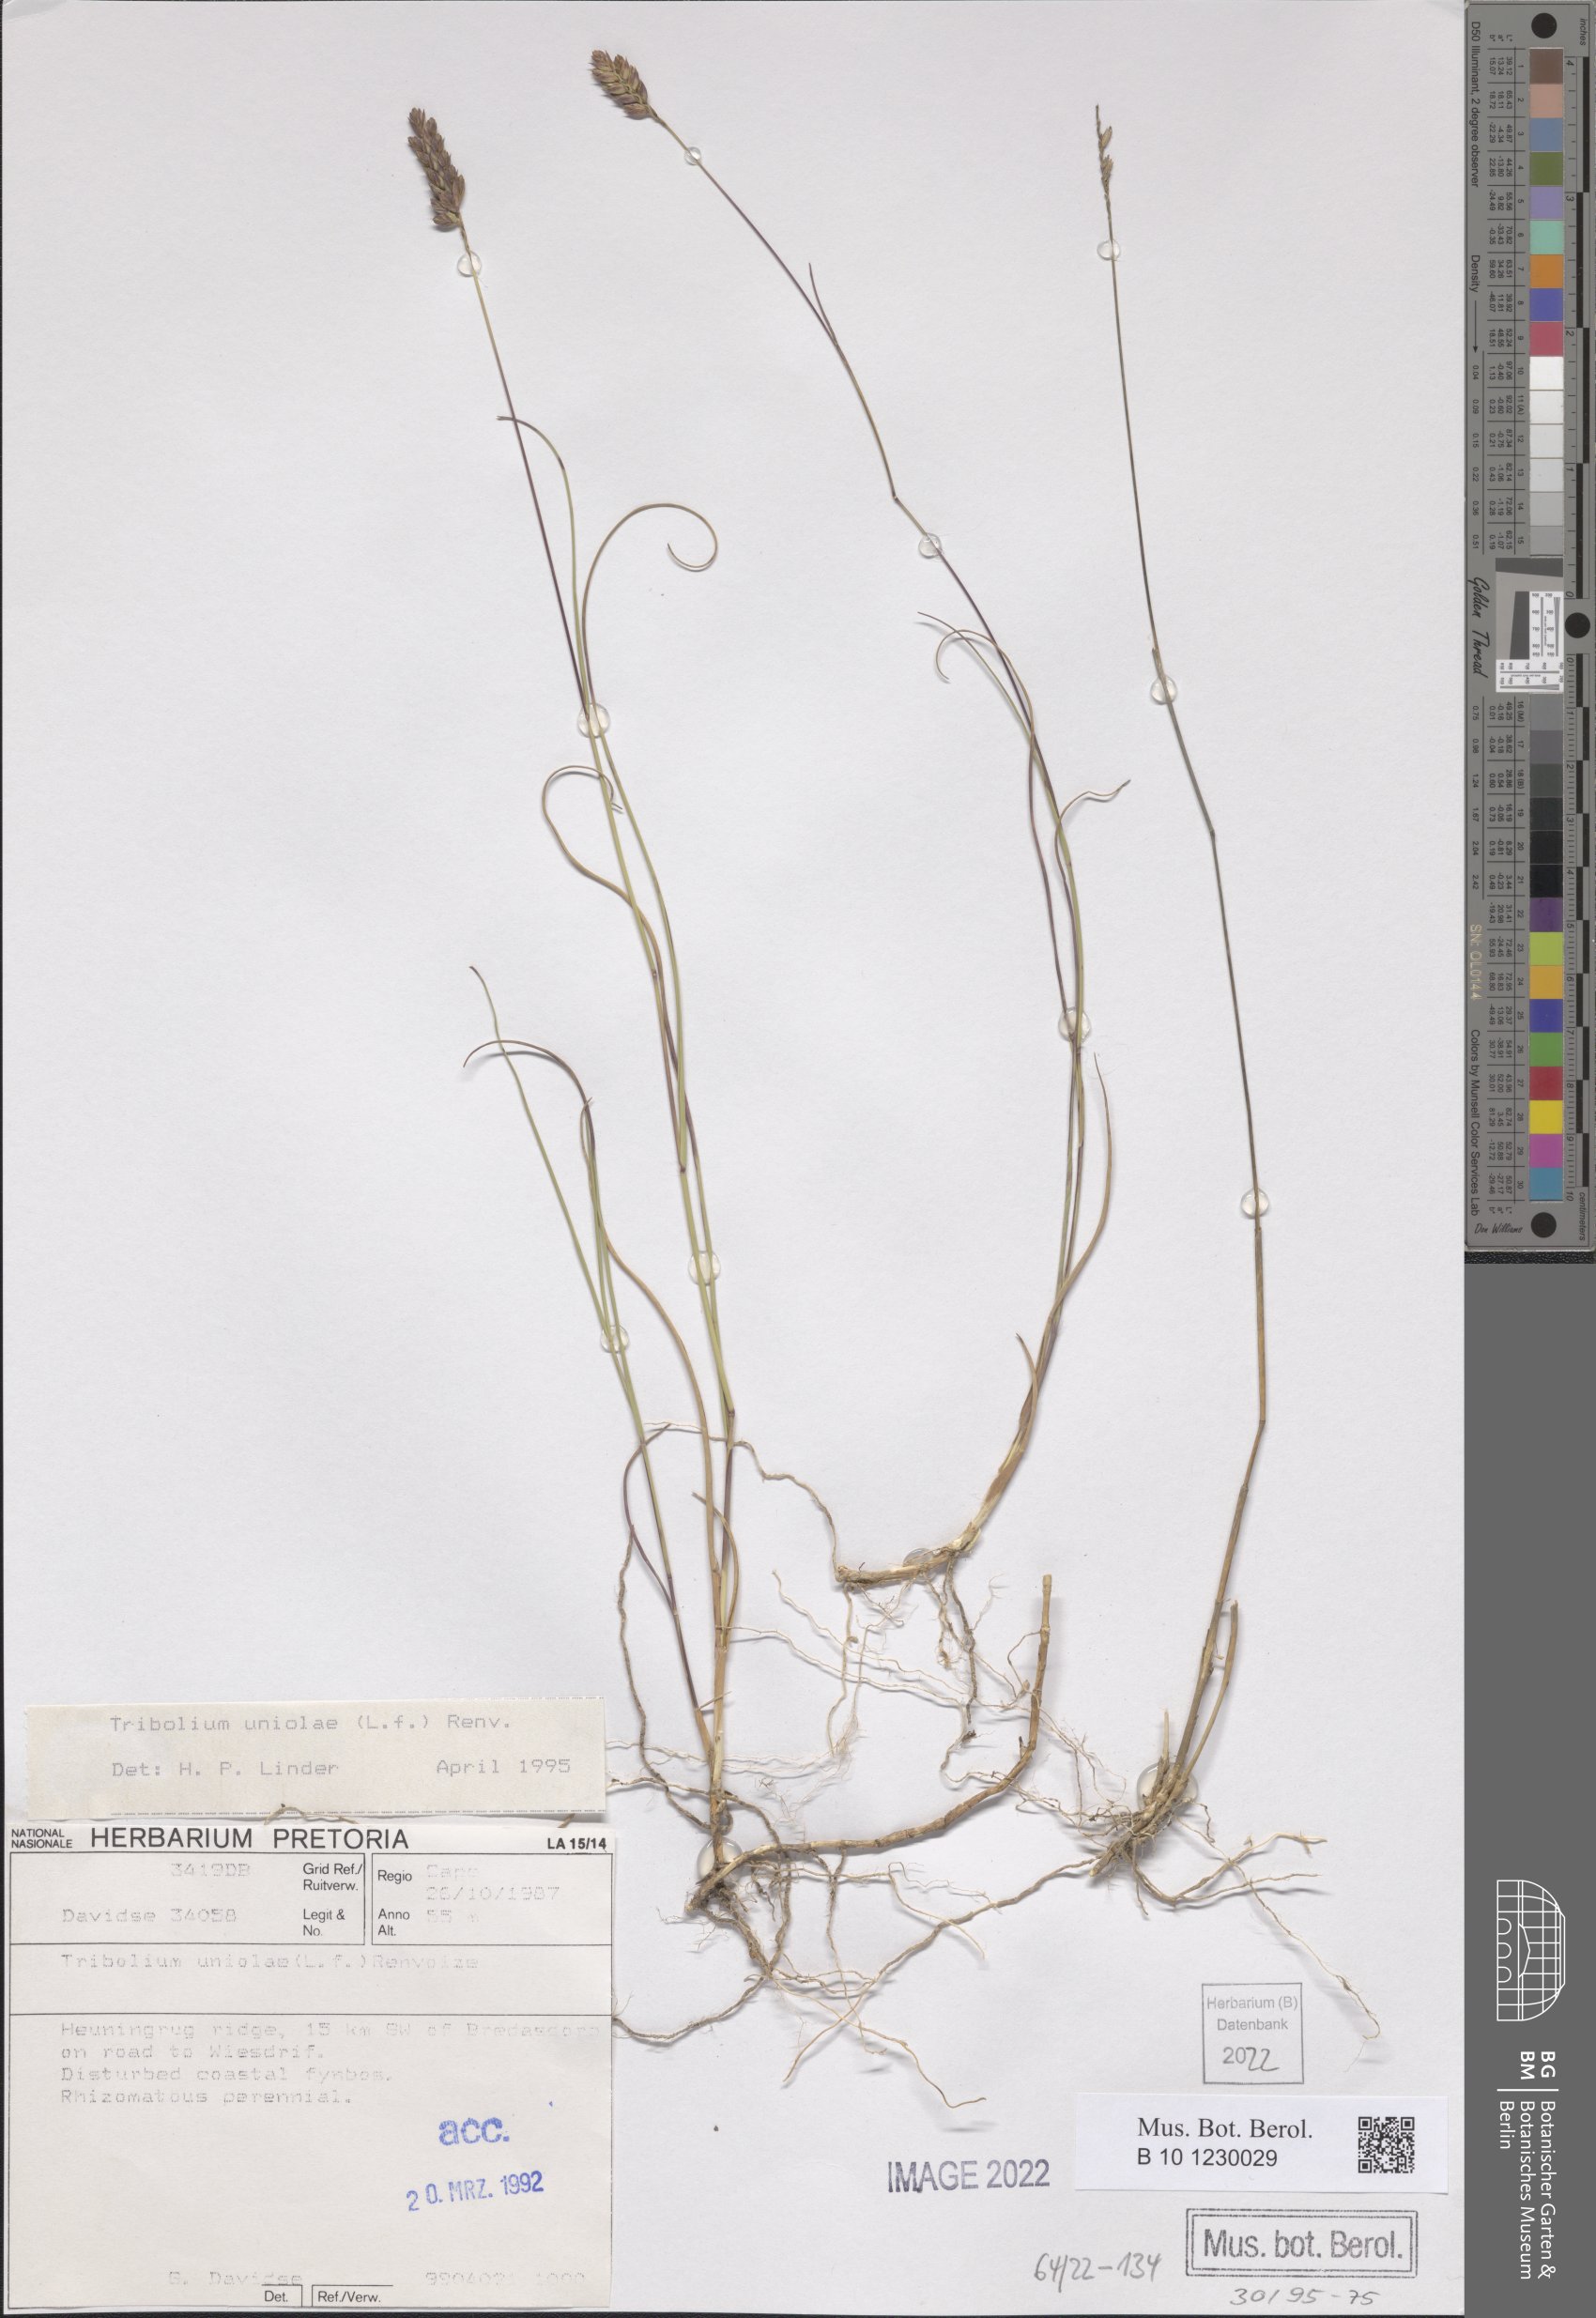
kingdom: Plantae
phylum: Tracheophyta
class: Liliopsida
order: Poales
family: Poaceae
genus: Tribolium
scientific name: Tribolium uniolae
